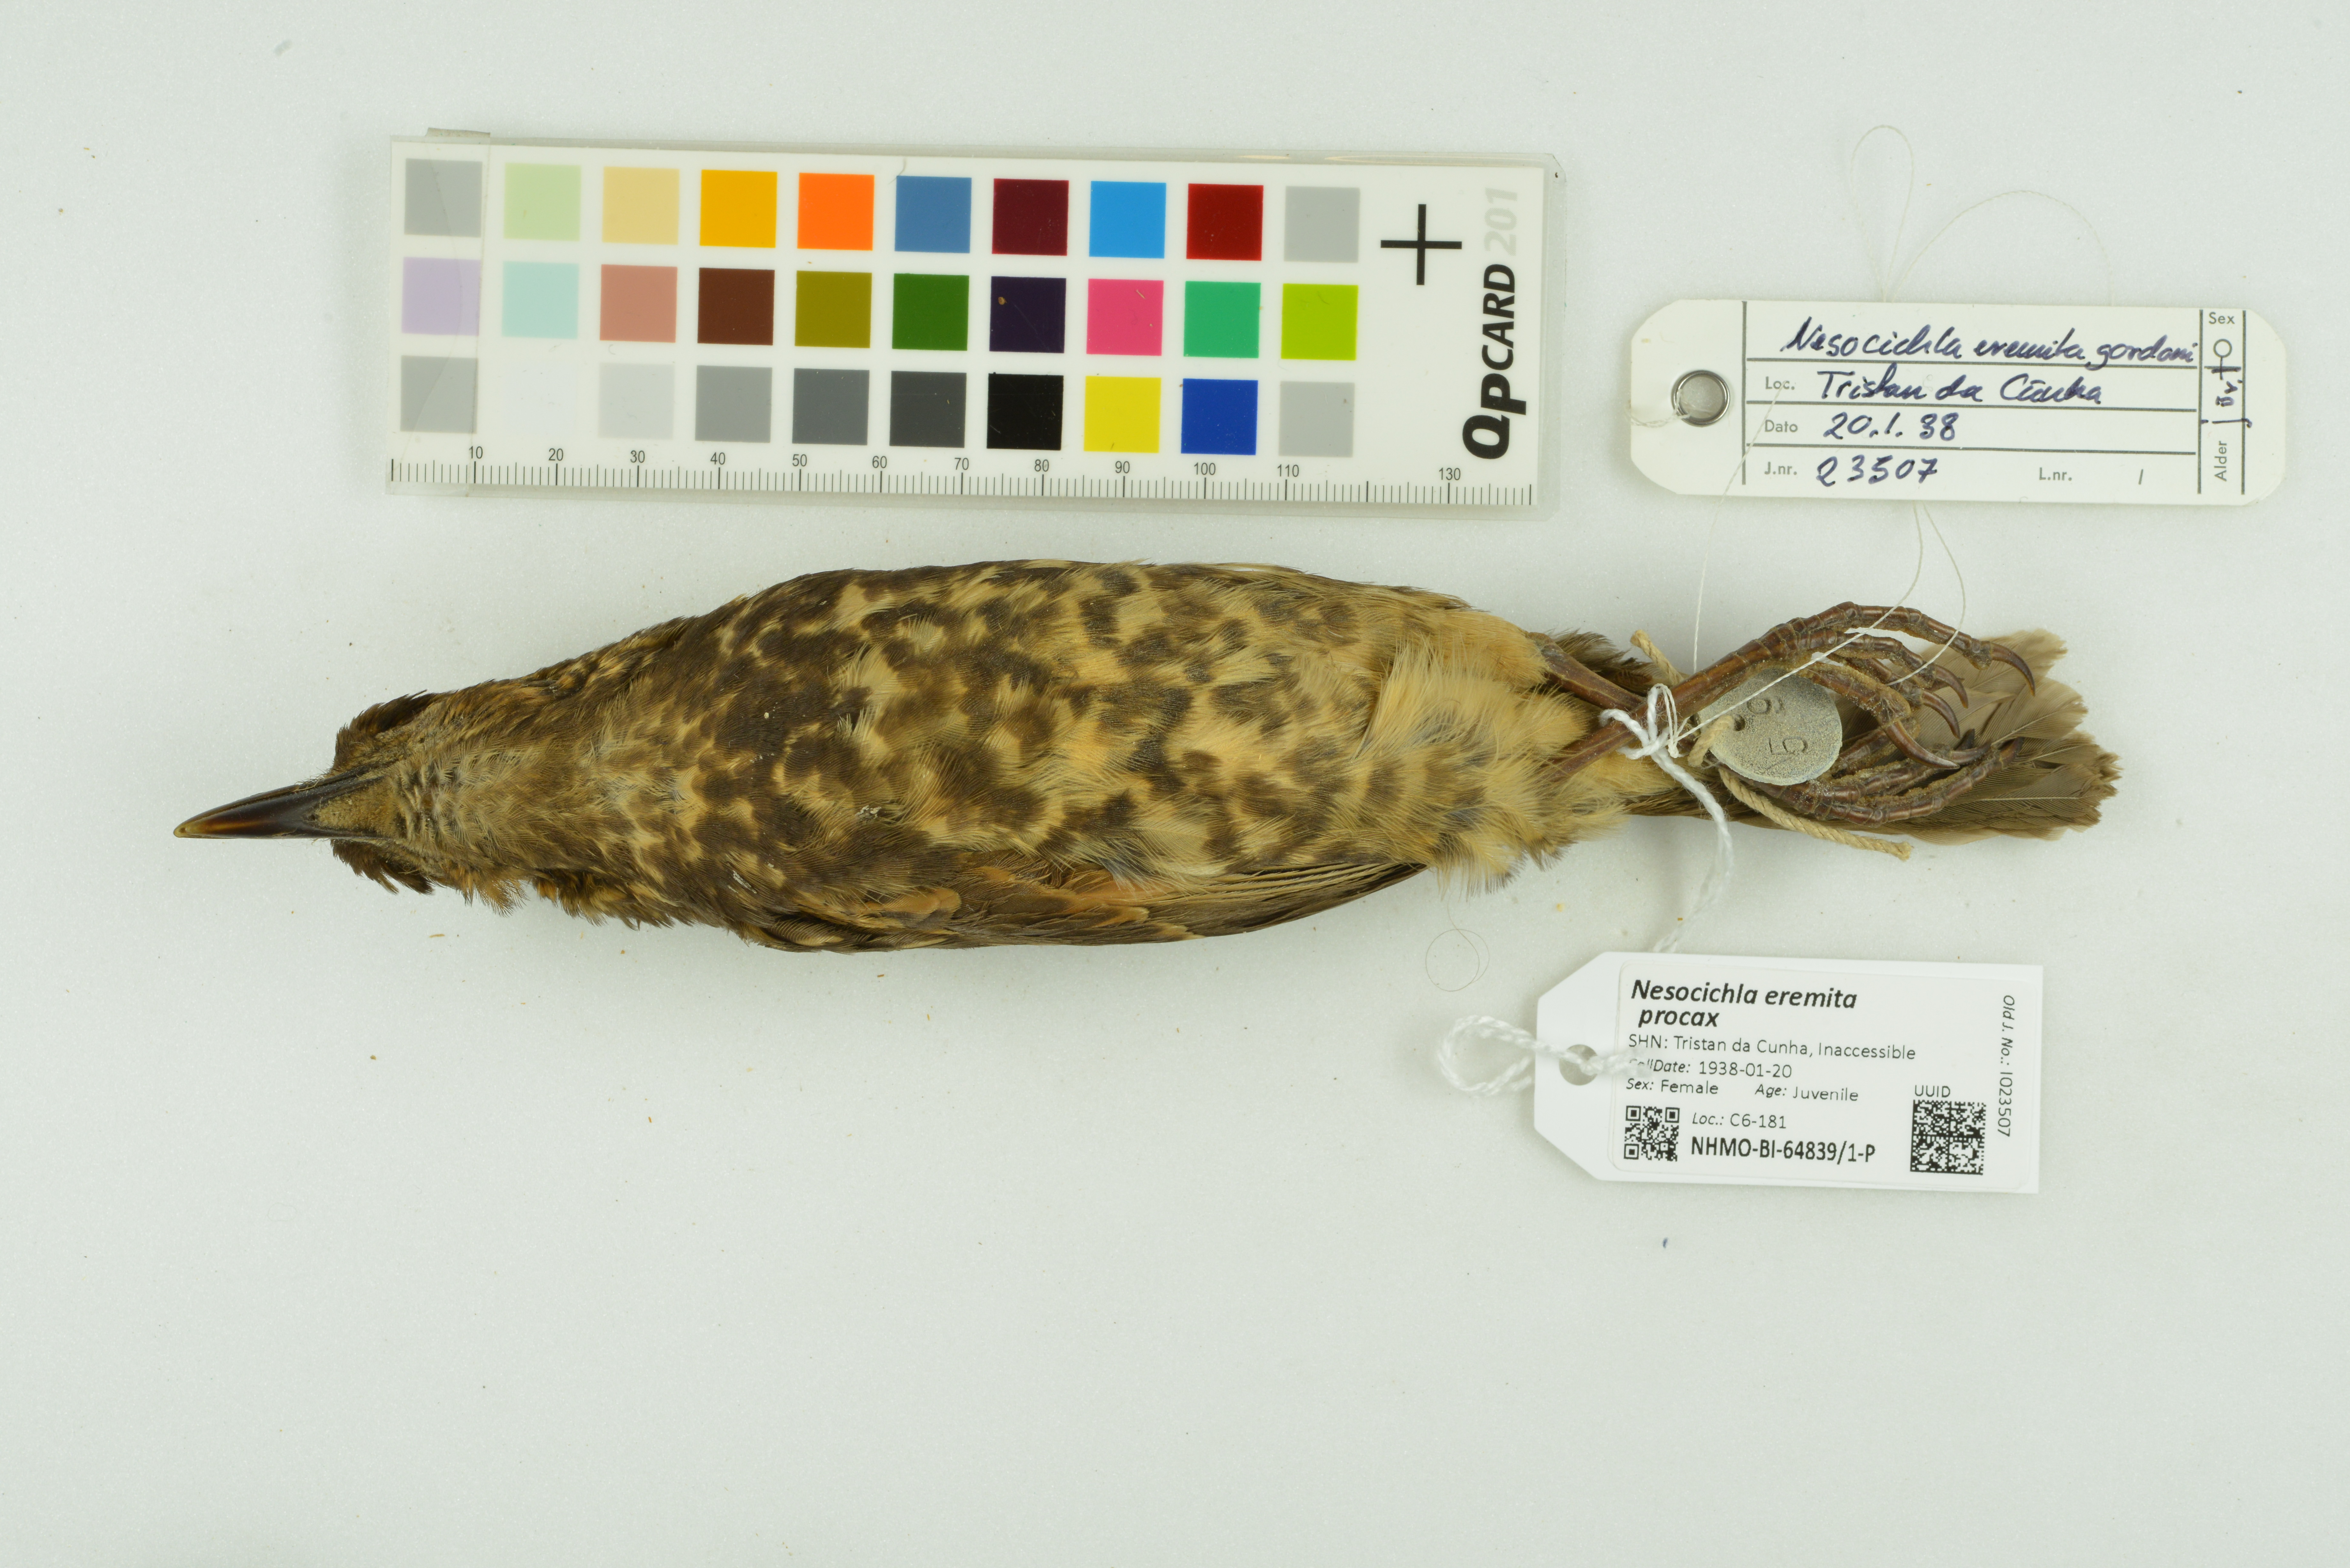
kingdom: Animalia
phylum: Chordata
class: Aves
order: Passeriformes
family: Turdidae
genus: Nesocichla
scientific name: Nesocichla eremita
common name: Tristan thrush
